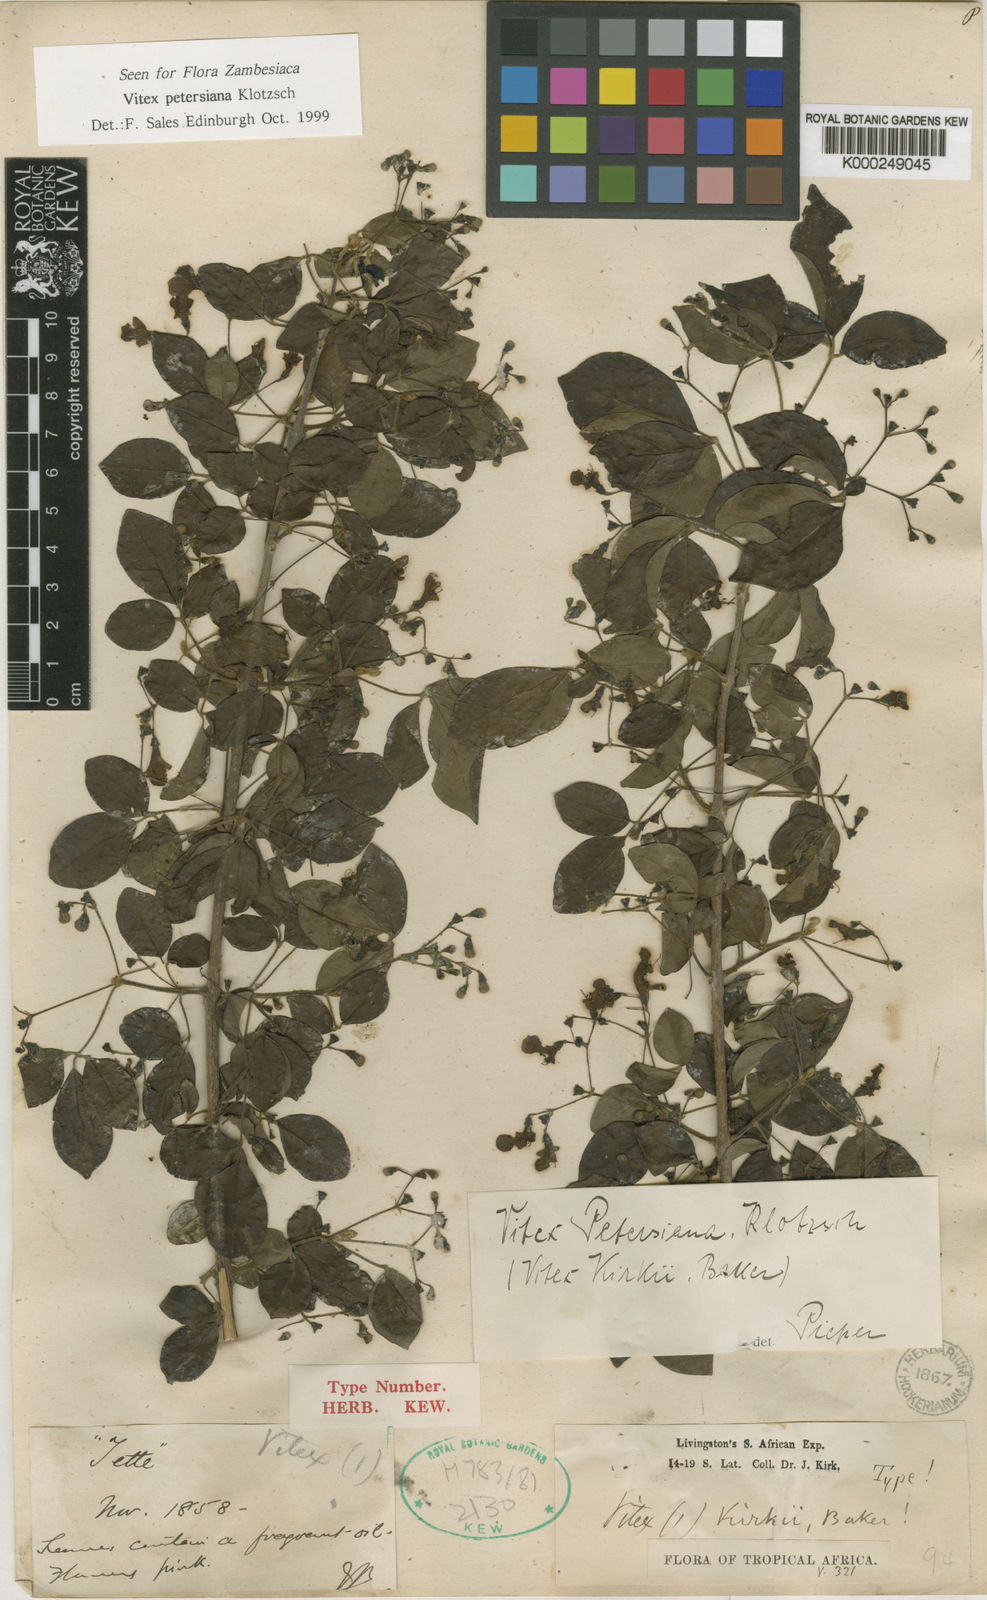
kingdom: Plantae
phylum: Tracheophyta
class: Magnoliopsida
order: Lamiales
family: Lamiaceae
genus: Vitex
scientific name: Vitex petersiana
